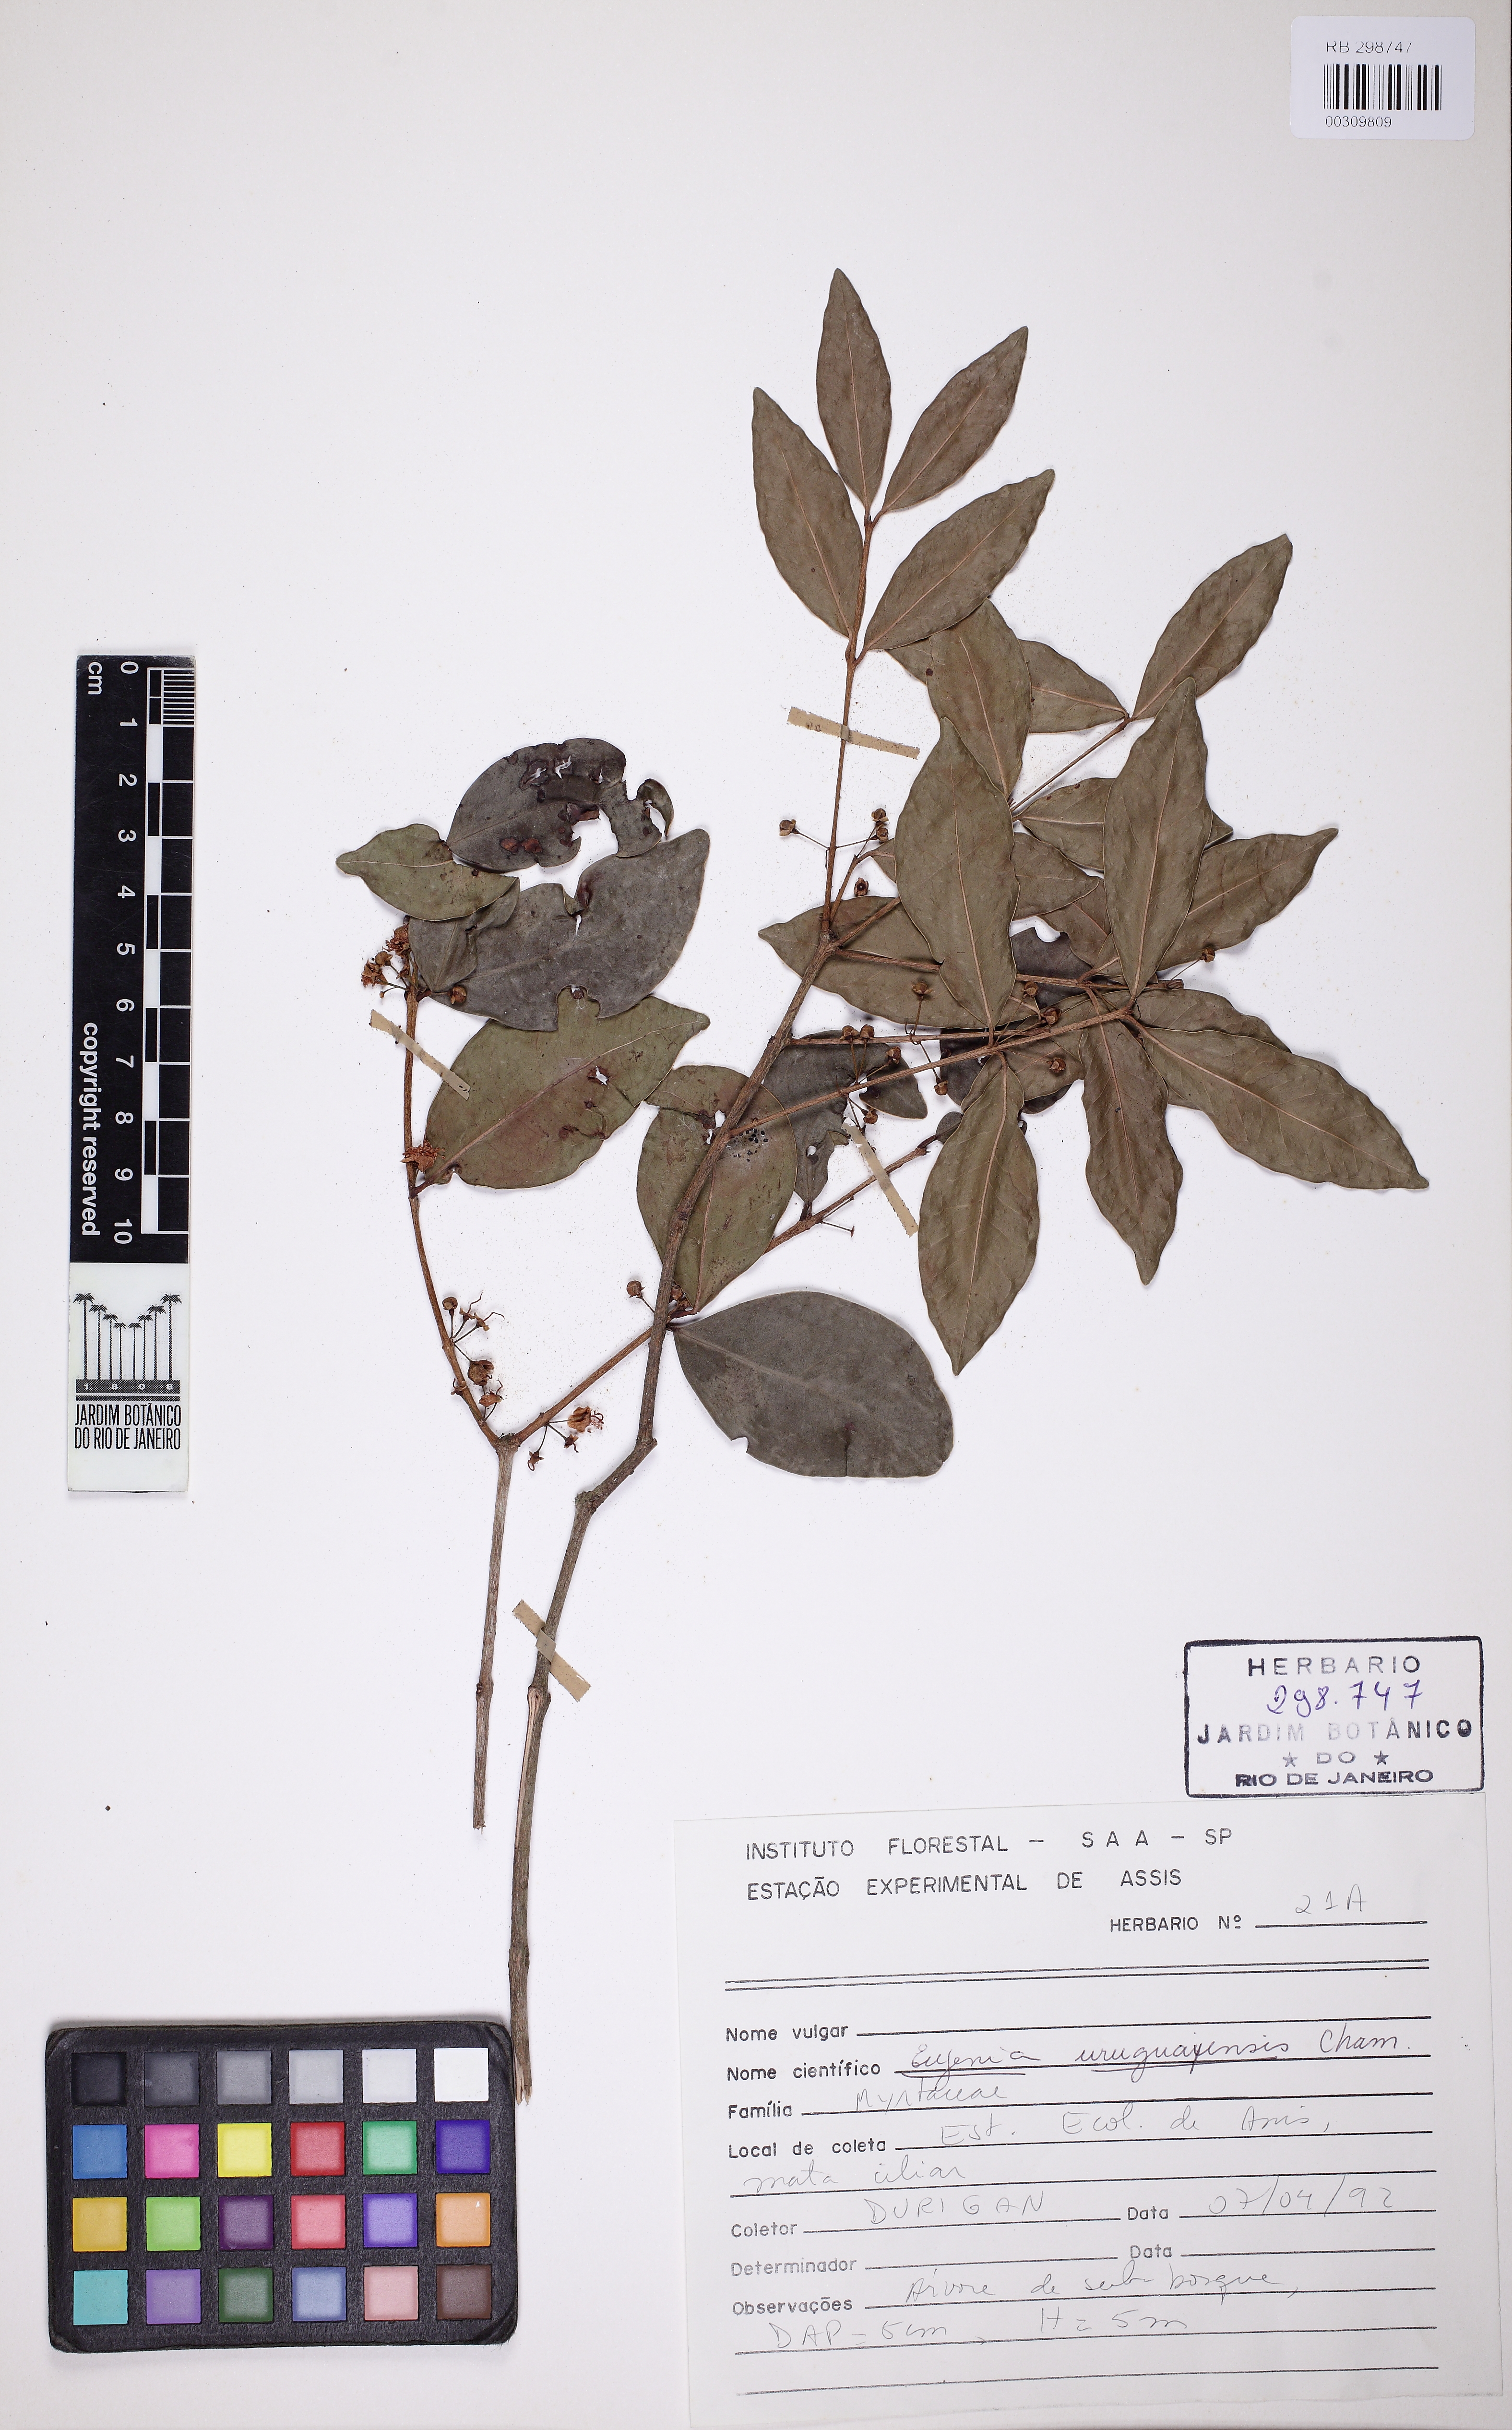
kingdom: Plantae
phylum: Tracheophyta
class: Magnoliopsida
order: Myrtales
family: Myrtaceae
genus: Eugenia
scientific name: Eugenia hiemalis
